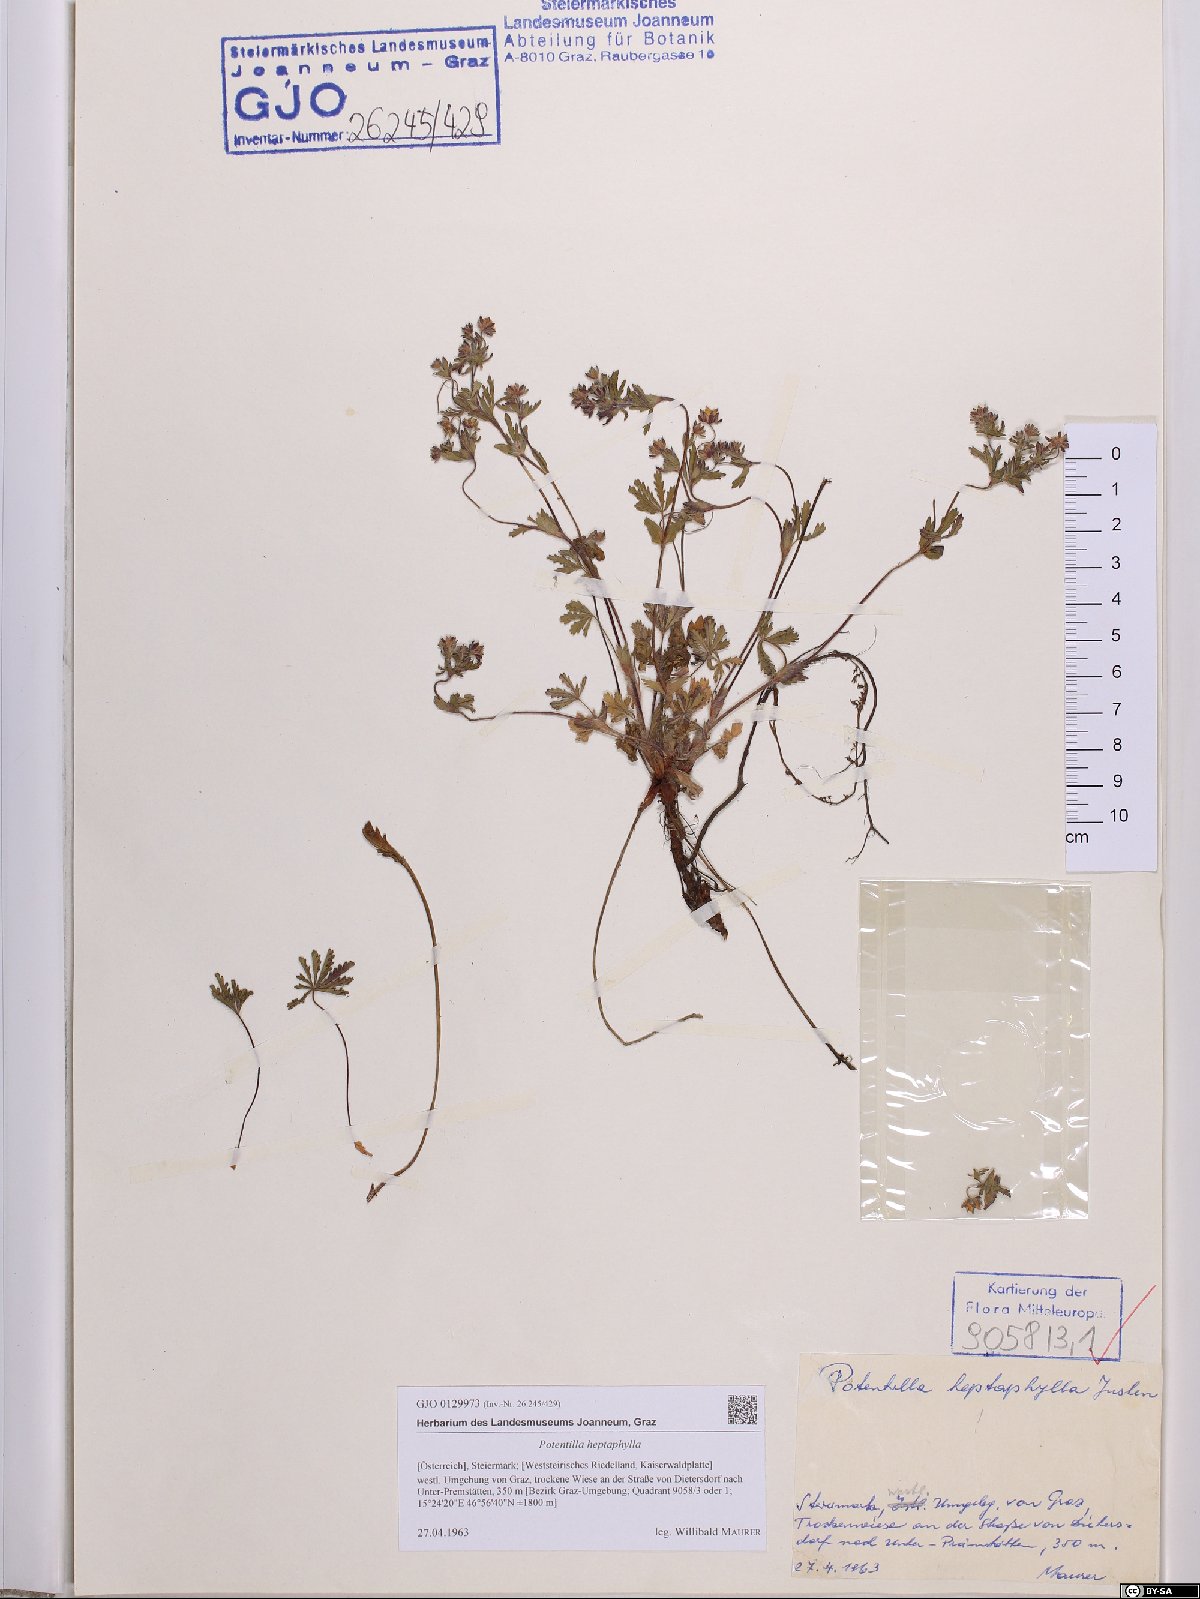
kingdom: Plantae
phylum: Tracheophyta
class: Magnoliopsida
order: Rosales
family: Rosaceae
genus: Potentilla
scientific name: Potentilla heptaphylla
